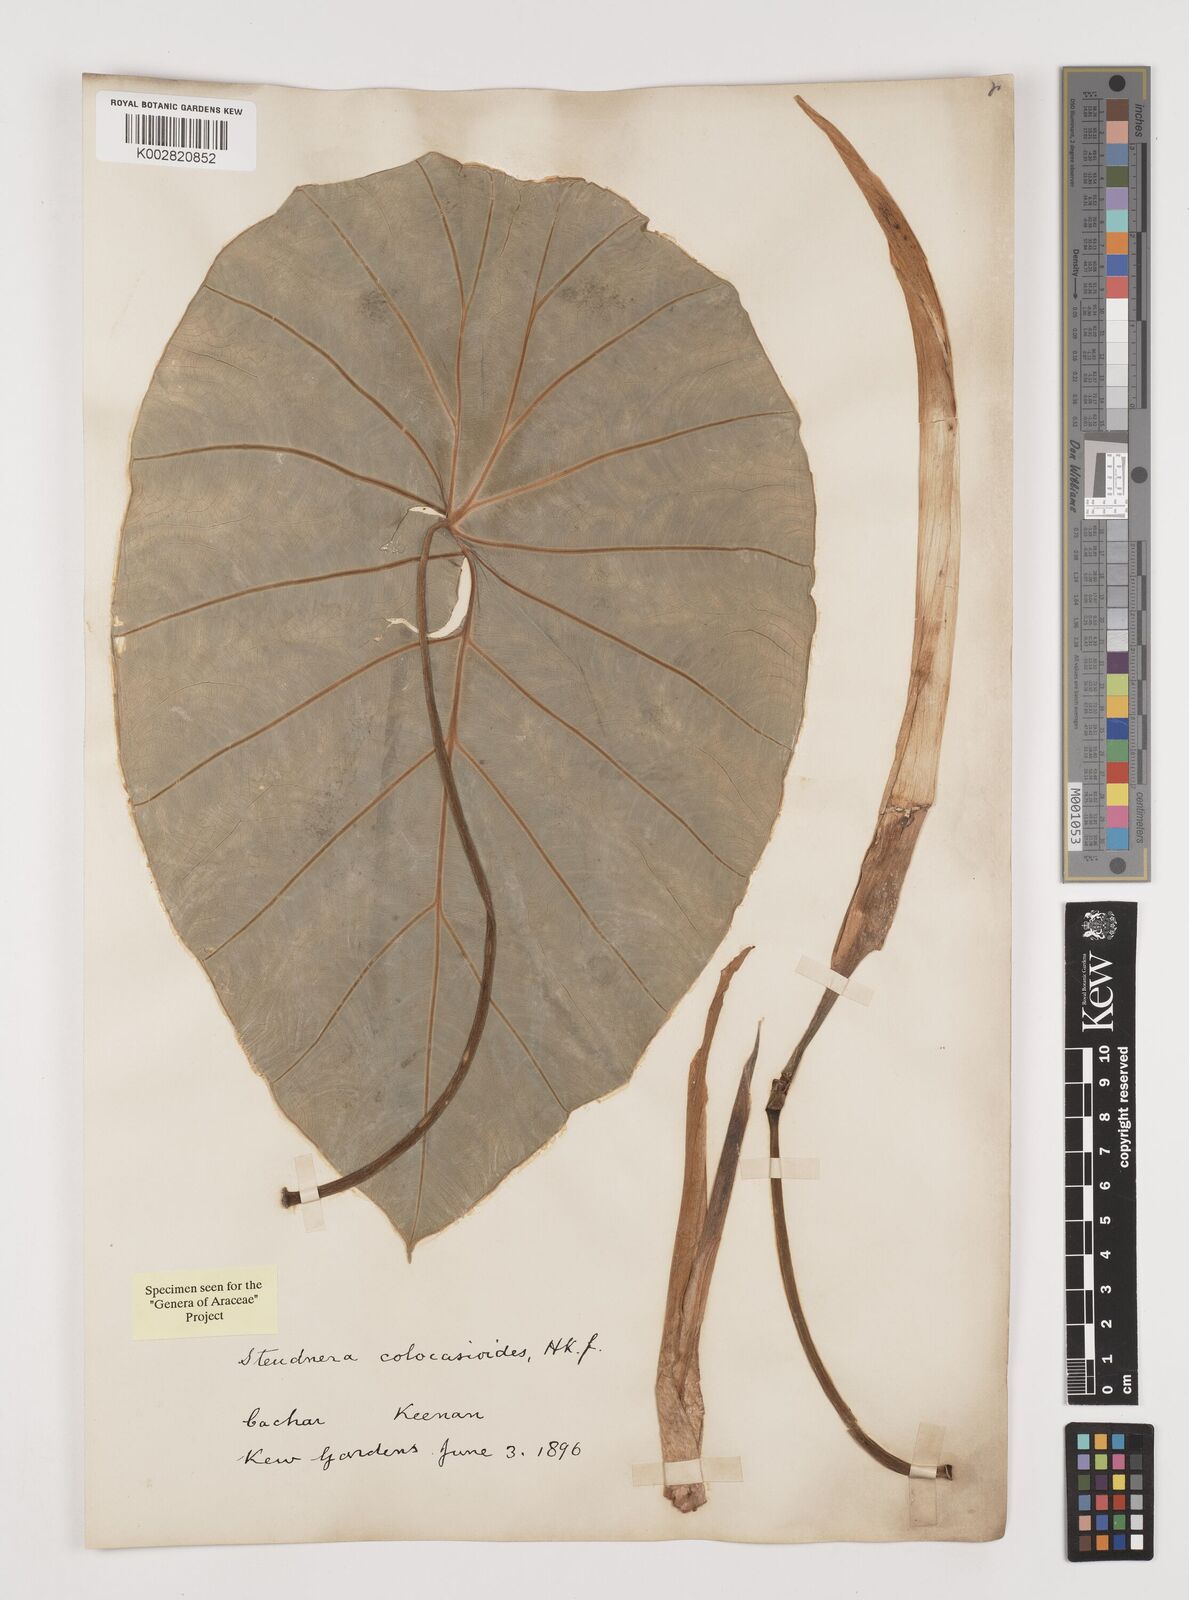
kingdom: Plantae
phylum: Tracheophyta
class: Liliopsida
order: Alismatales
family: Araceae
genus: Steudnera
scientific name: Steudnera colocasiifolia
